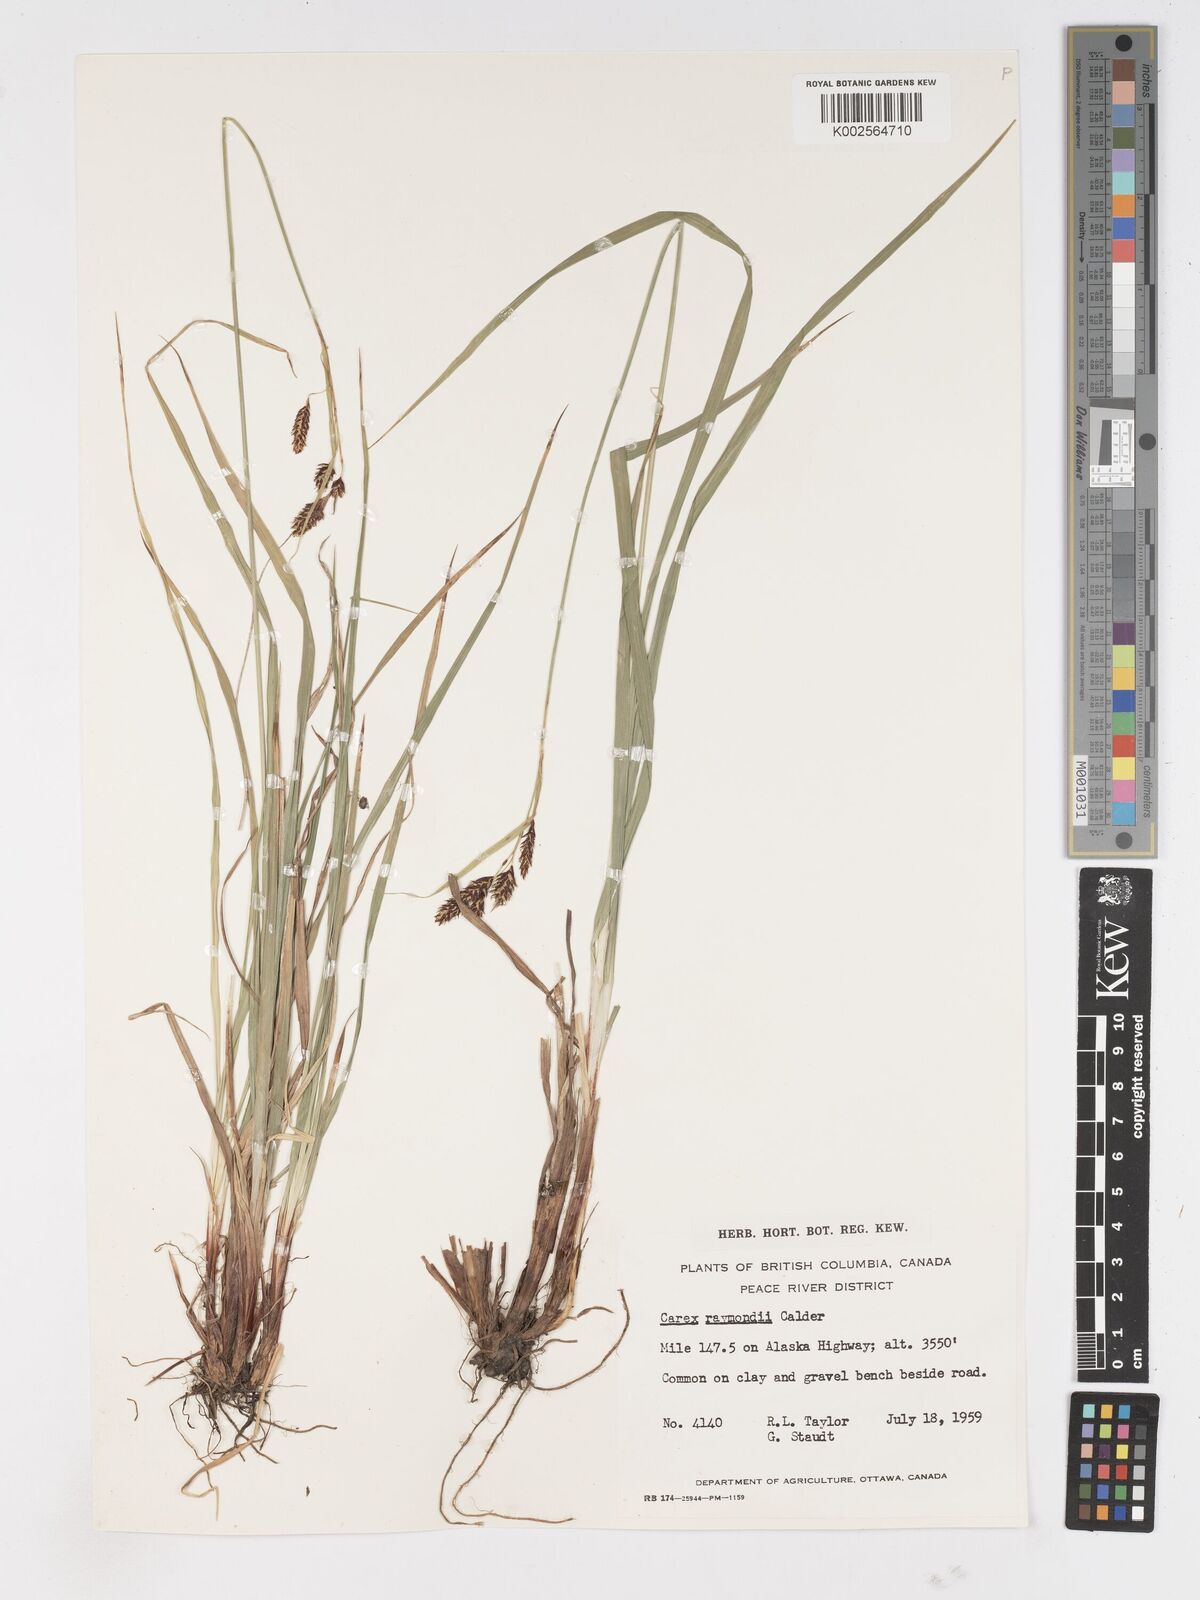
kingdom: Plantae
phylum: Tracheophyta
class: Liliopsida
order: Poales
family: Cyperaceae
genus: Carex
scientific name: Carex atratiformis
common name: Black sedge
